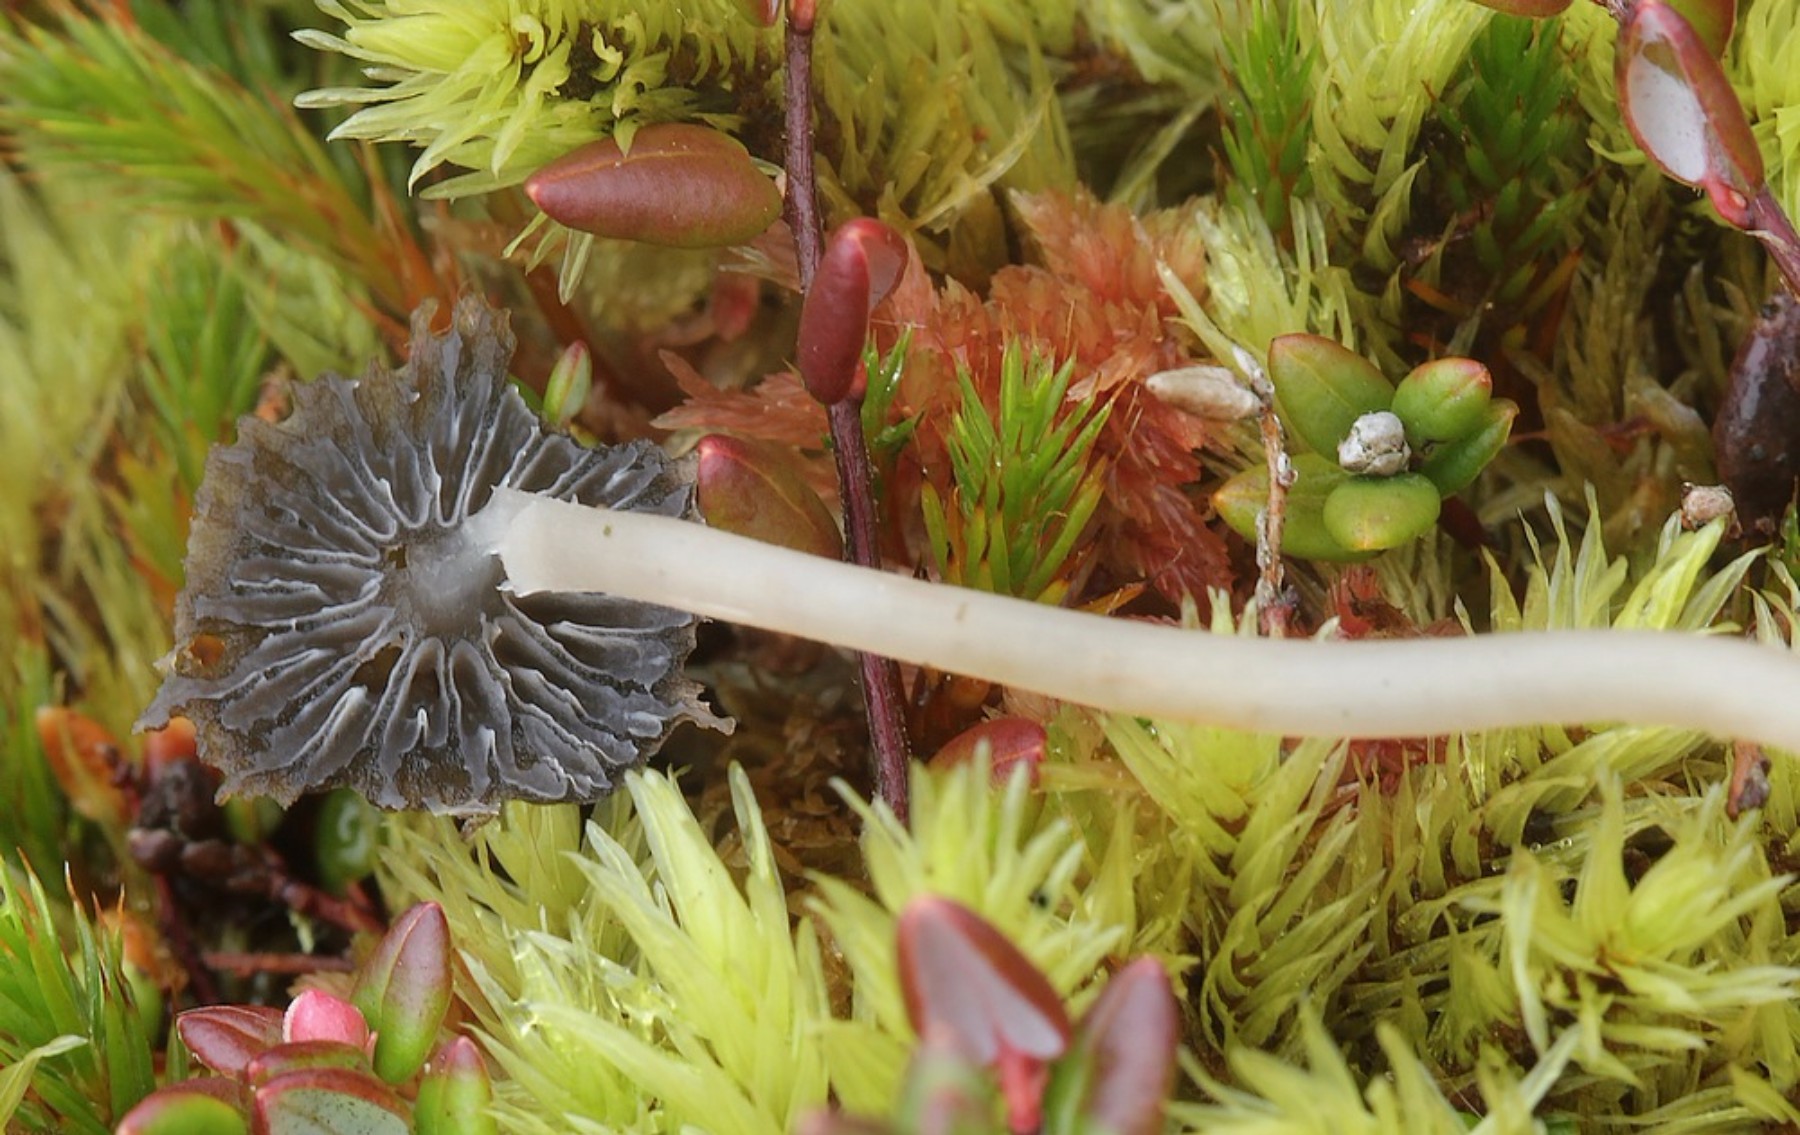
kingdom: Fungi
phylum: Basidiomycota
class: Agaricomycetes
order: Agaricales
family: Mycenaceae
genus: Mycena
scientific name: Mycena concolor
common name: tørvemos-huesvamp
